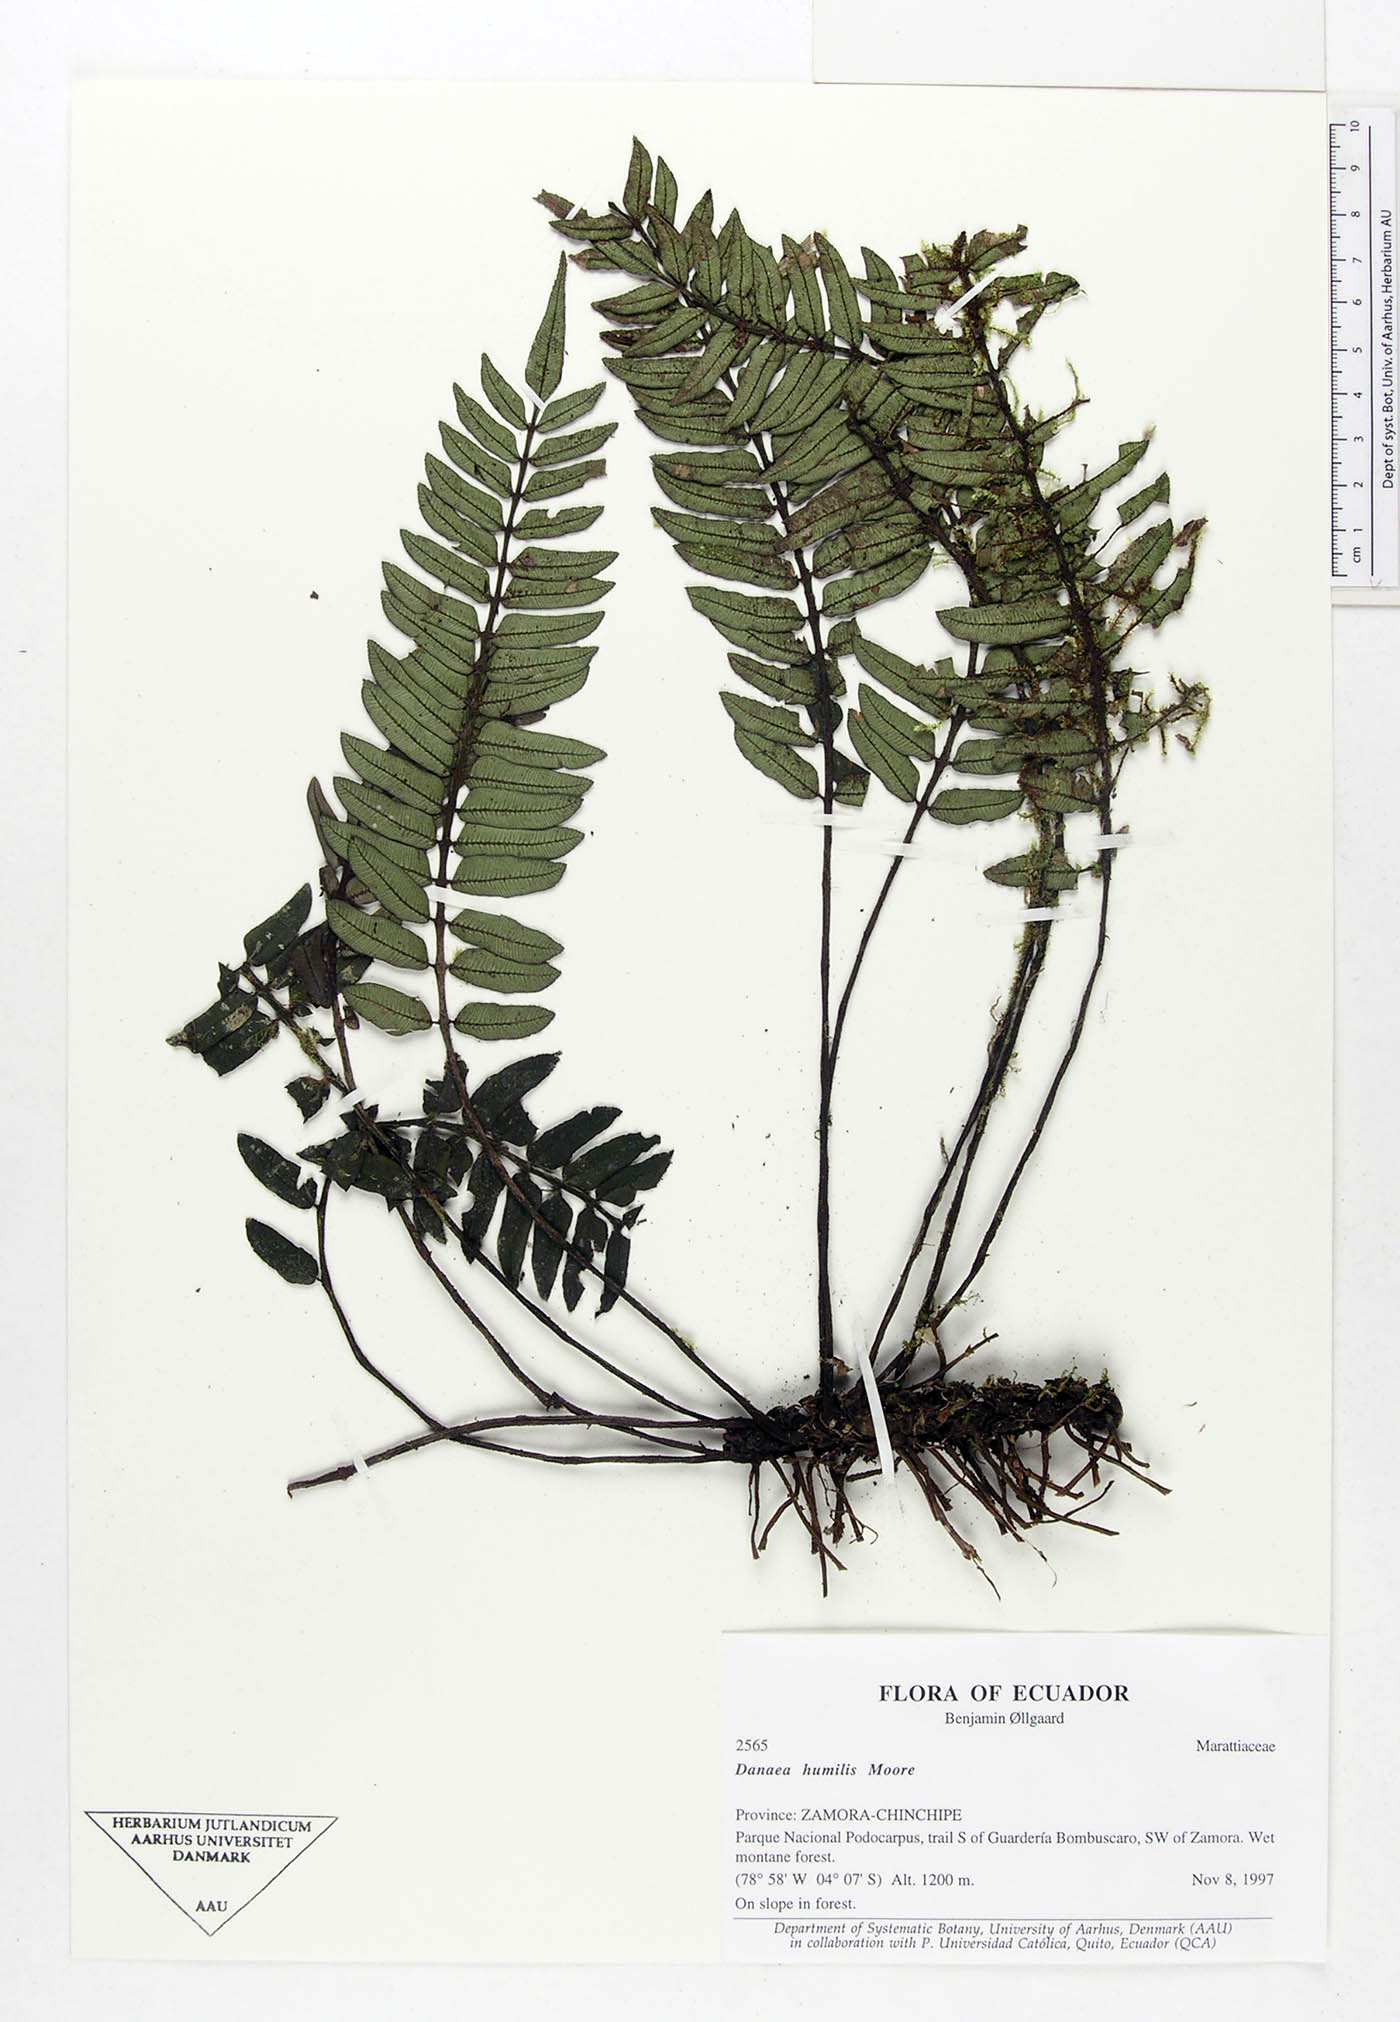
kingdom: Plantae
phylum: Tracheophyta
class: Polypodiopsida
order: Marattiales
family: Marattiaceae
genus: Danaea
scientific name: Danaea humilis
